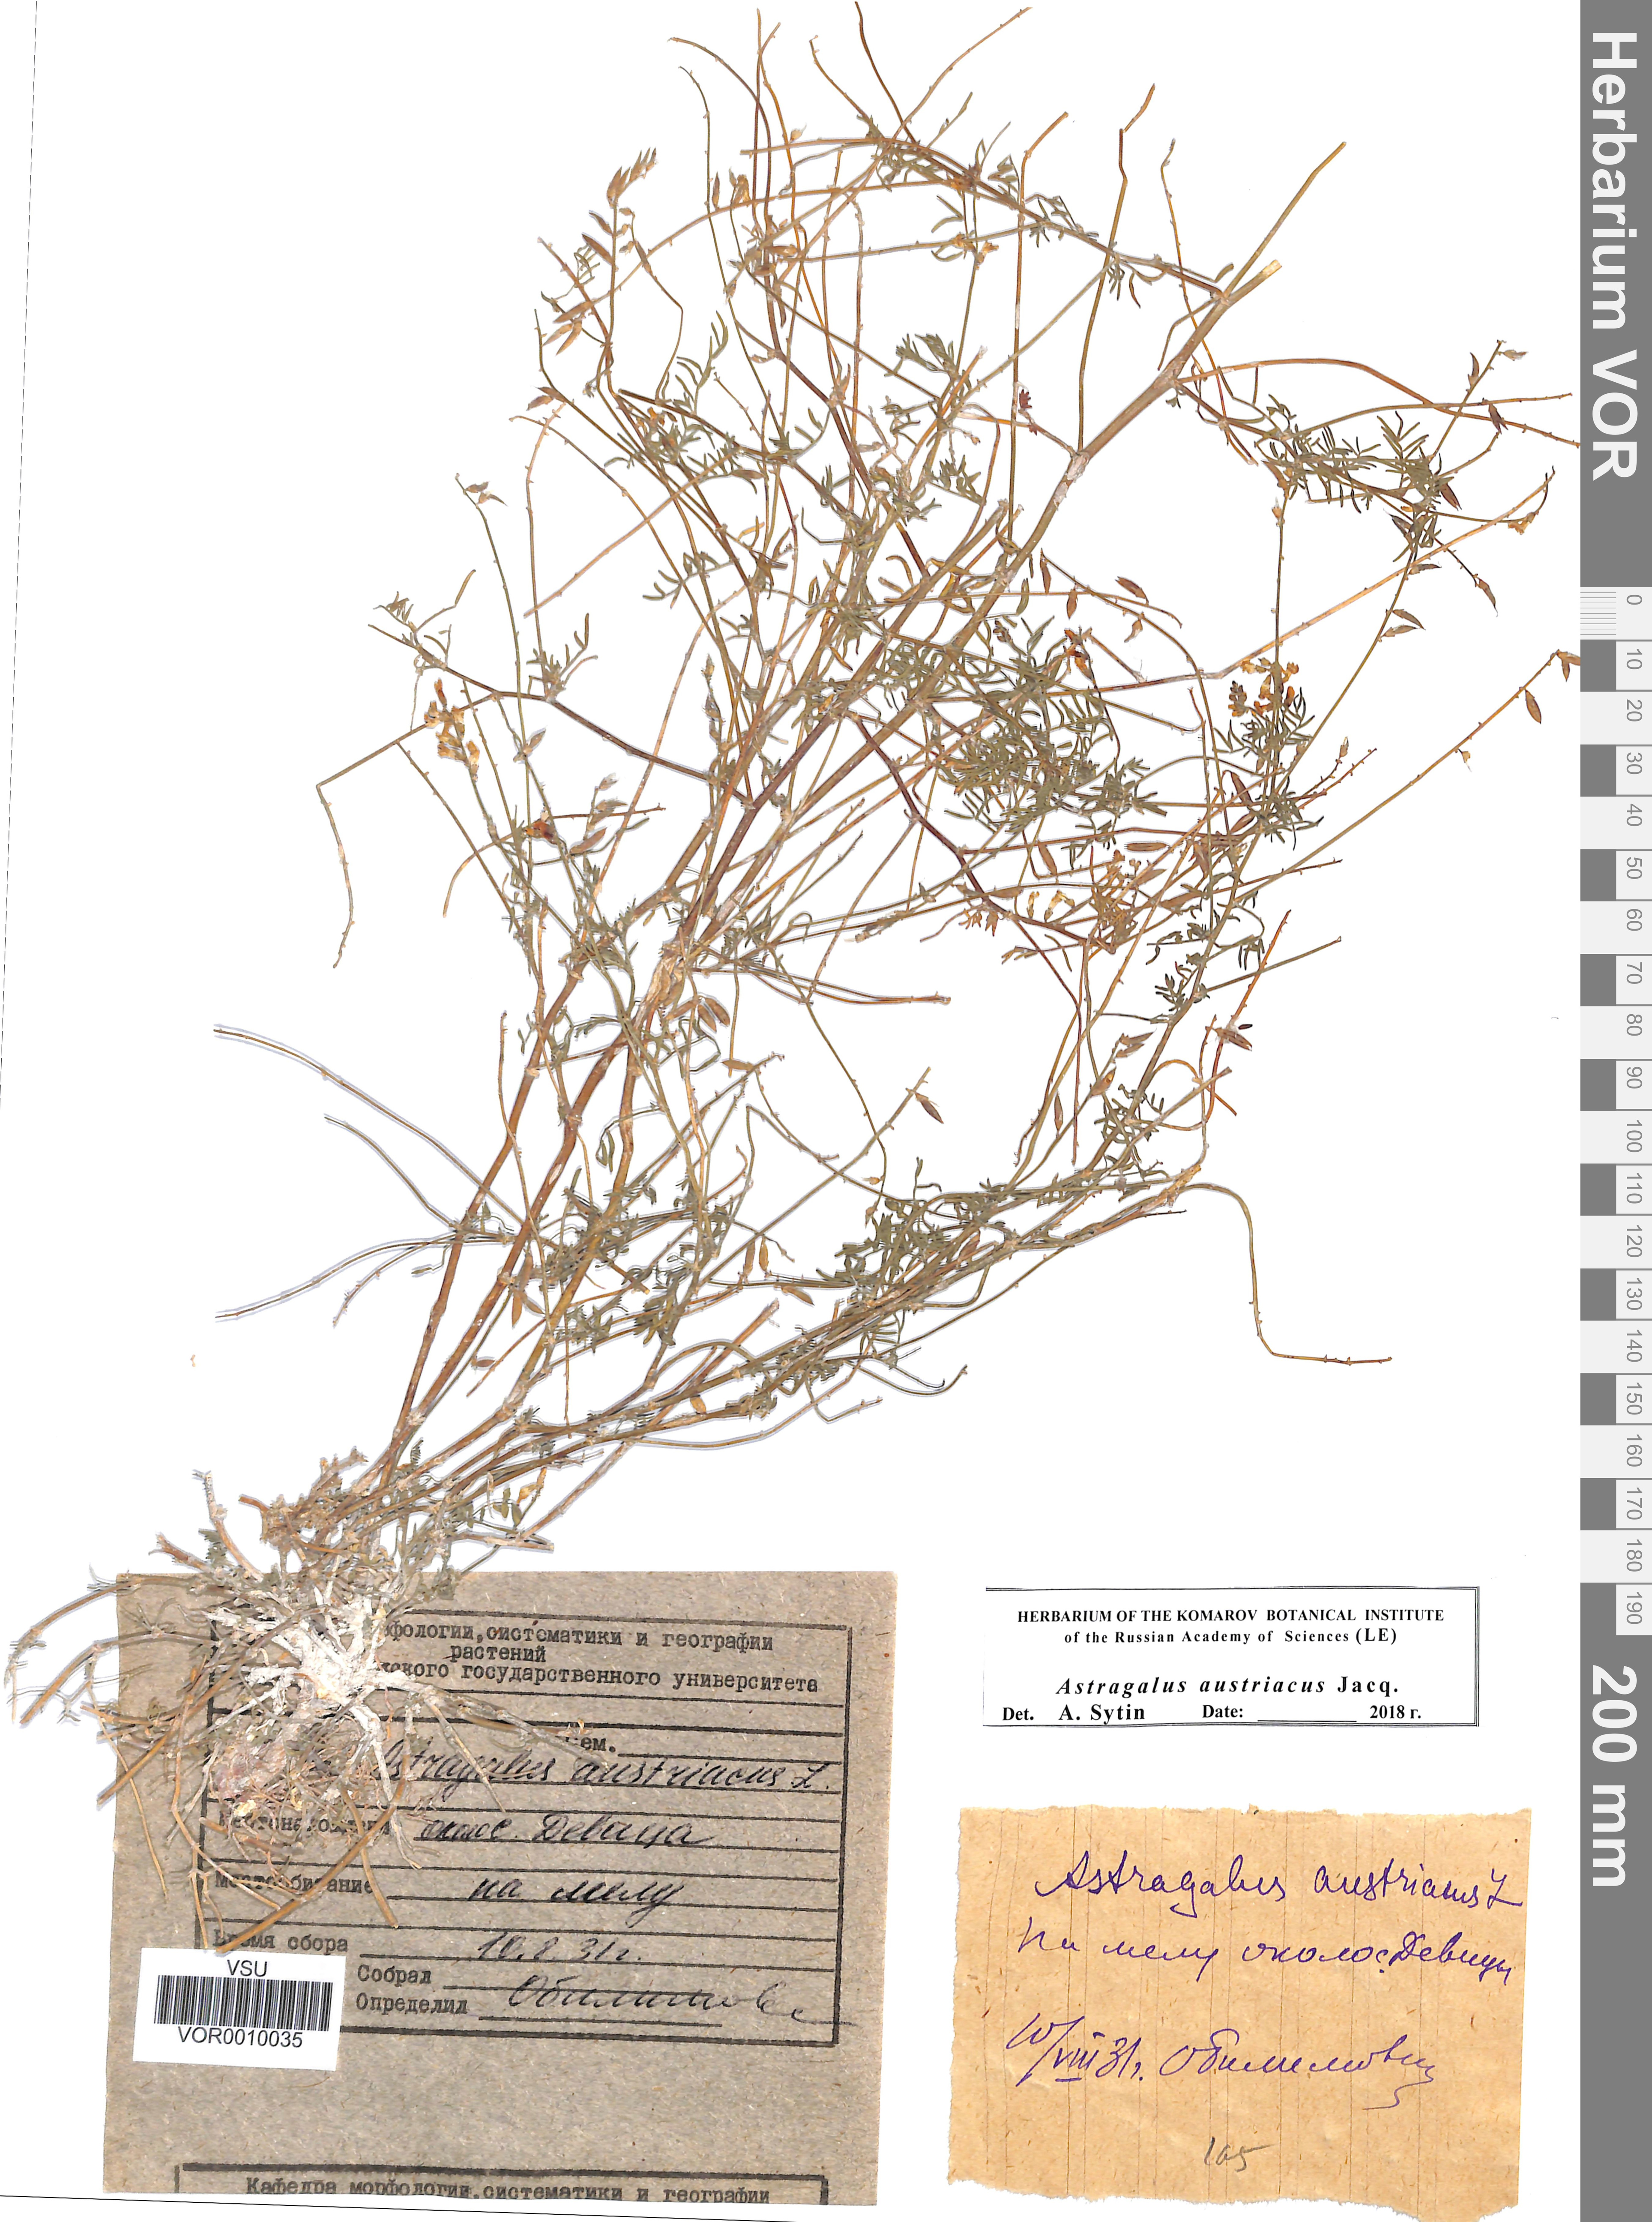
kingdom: Plantae
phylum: Tracheophyta
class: Magnoliopsida
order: Fabales
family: Fabaceae
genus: Astragalus
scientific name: Astragalus austriacus
